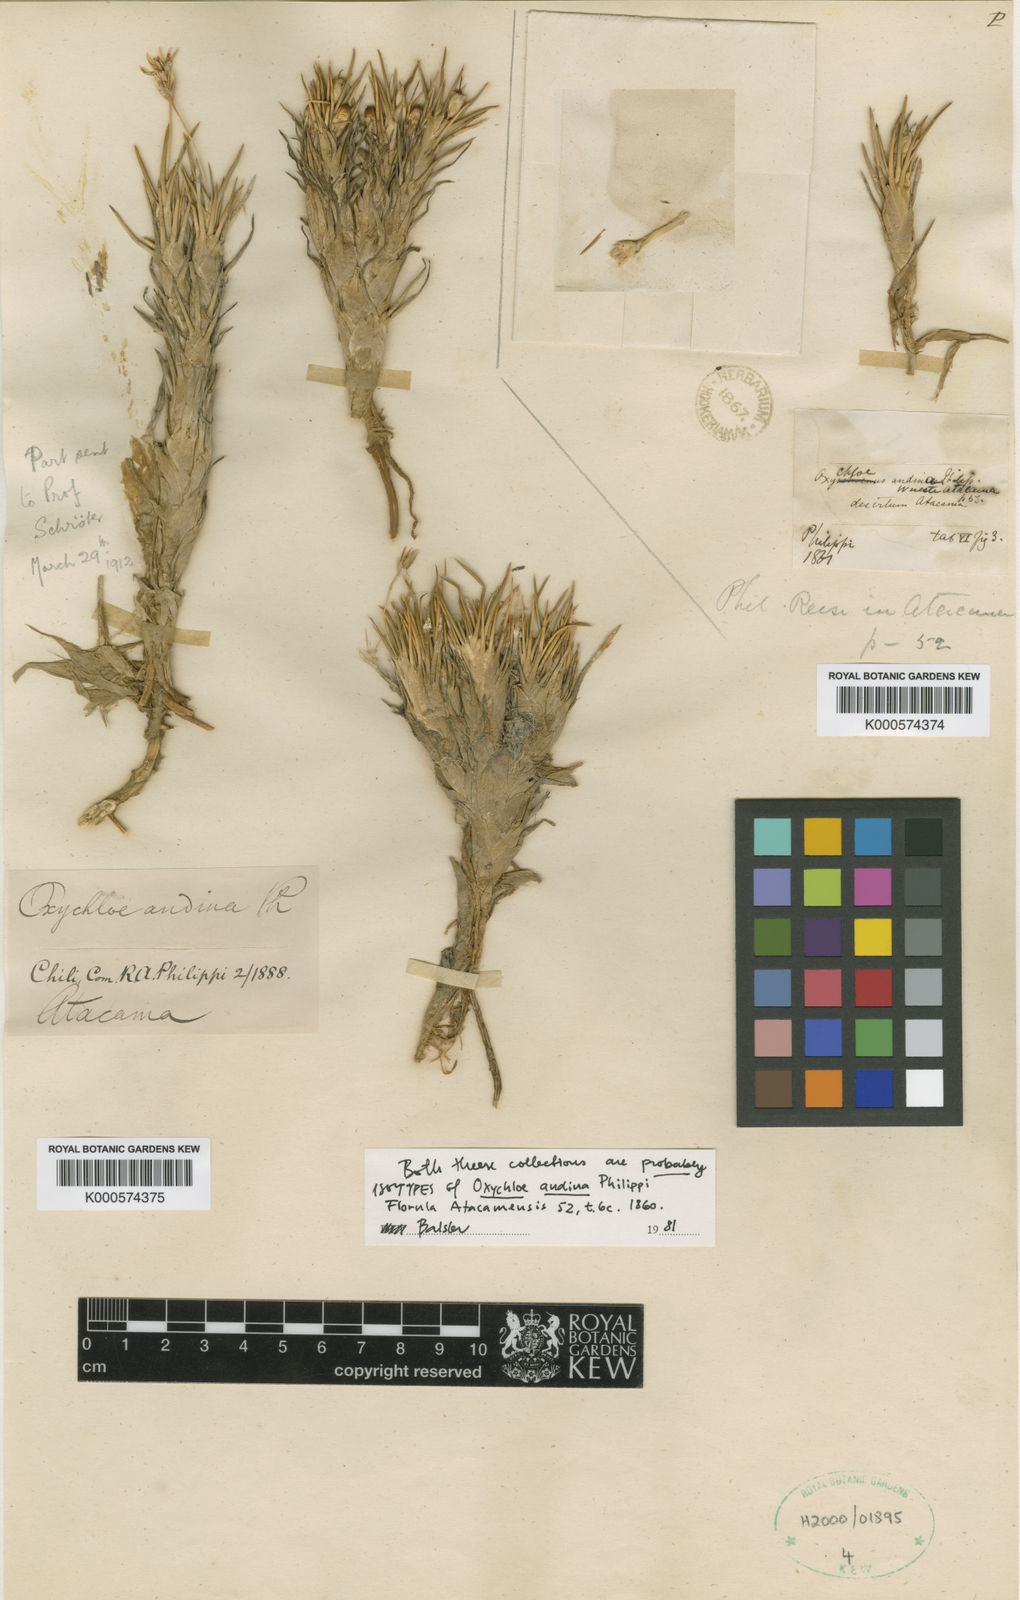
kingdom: Plantae
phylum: Tracheophyta
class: Liliopsida
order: Poales
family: Juncaceae
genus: Oxychloe
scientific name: Oxychloe andina
